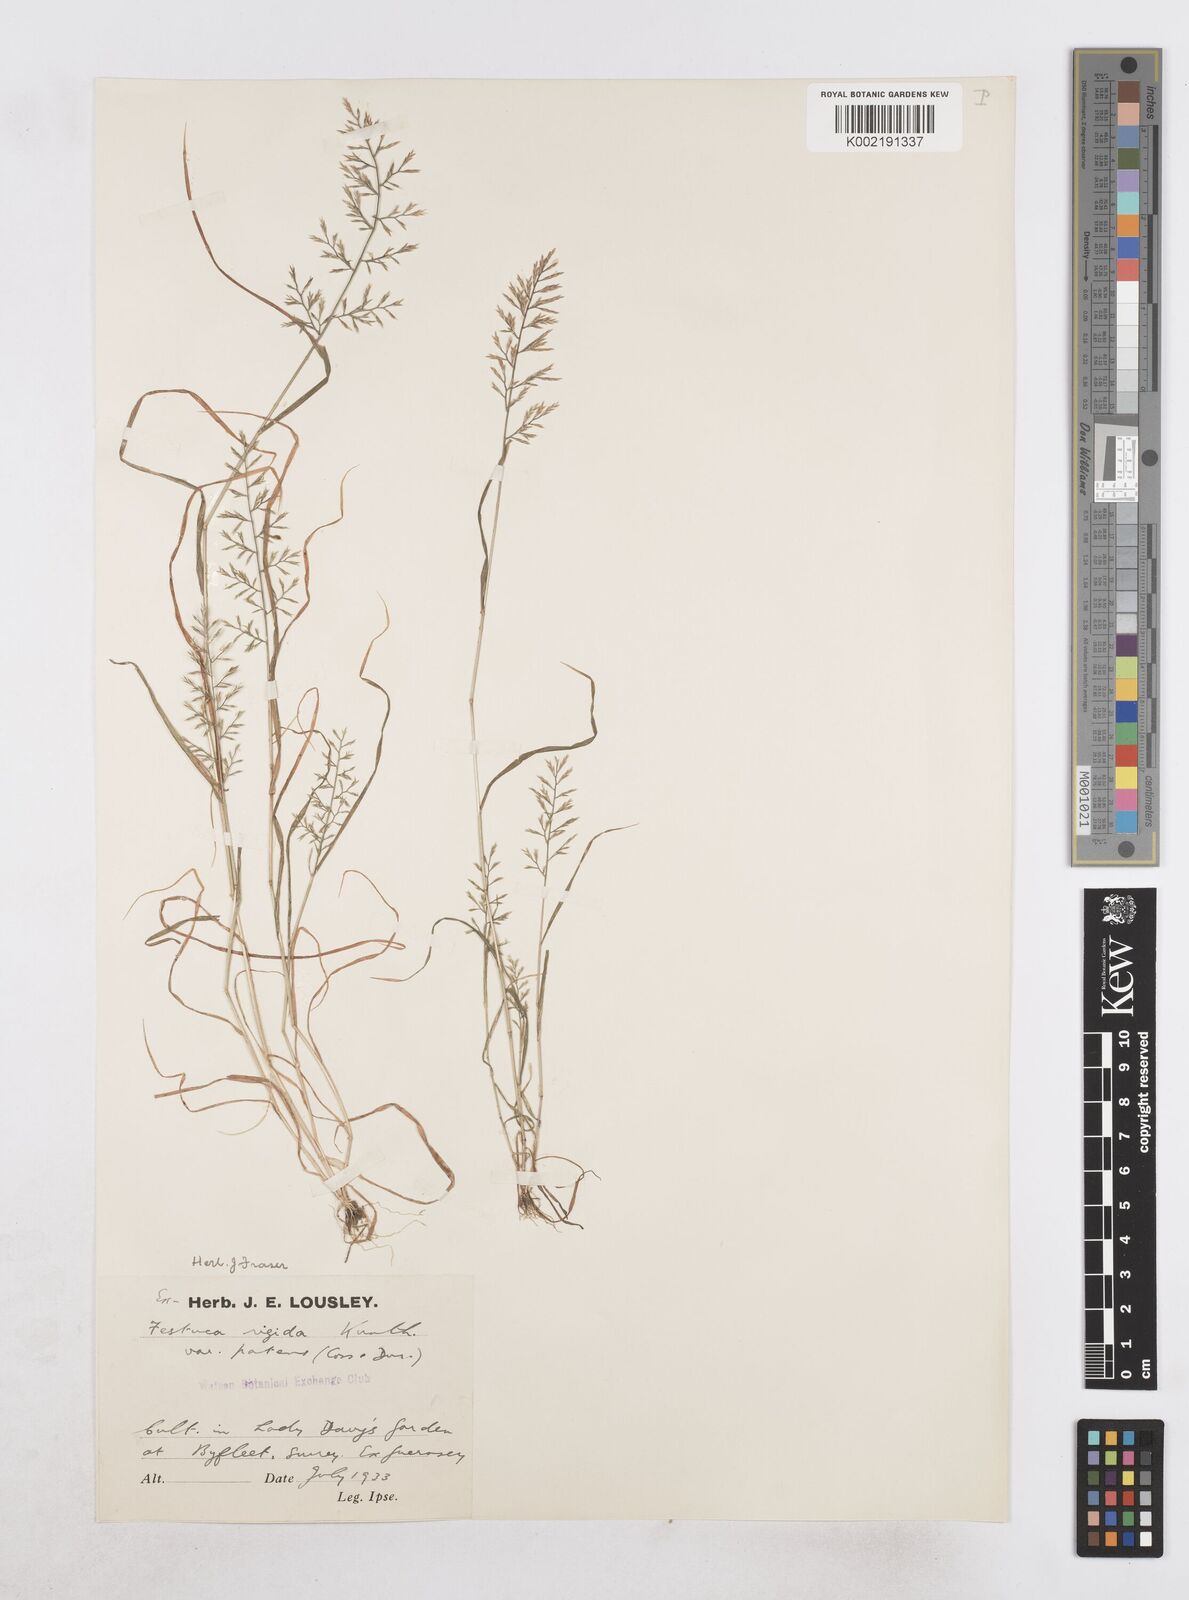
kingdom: Plantae
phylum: Tracheophyta
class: Liliopsida
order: Poales
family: Poaceae
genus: Catapodium
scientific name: Catapodium rigidum
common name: Fern-grass
